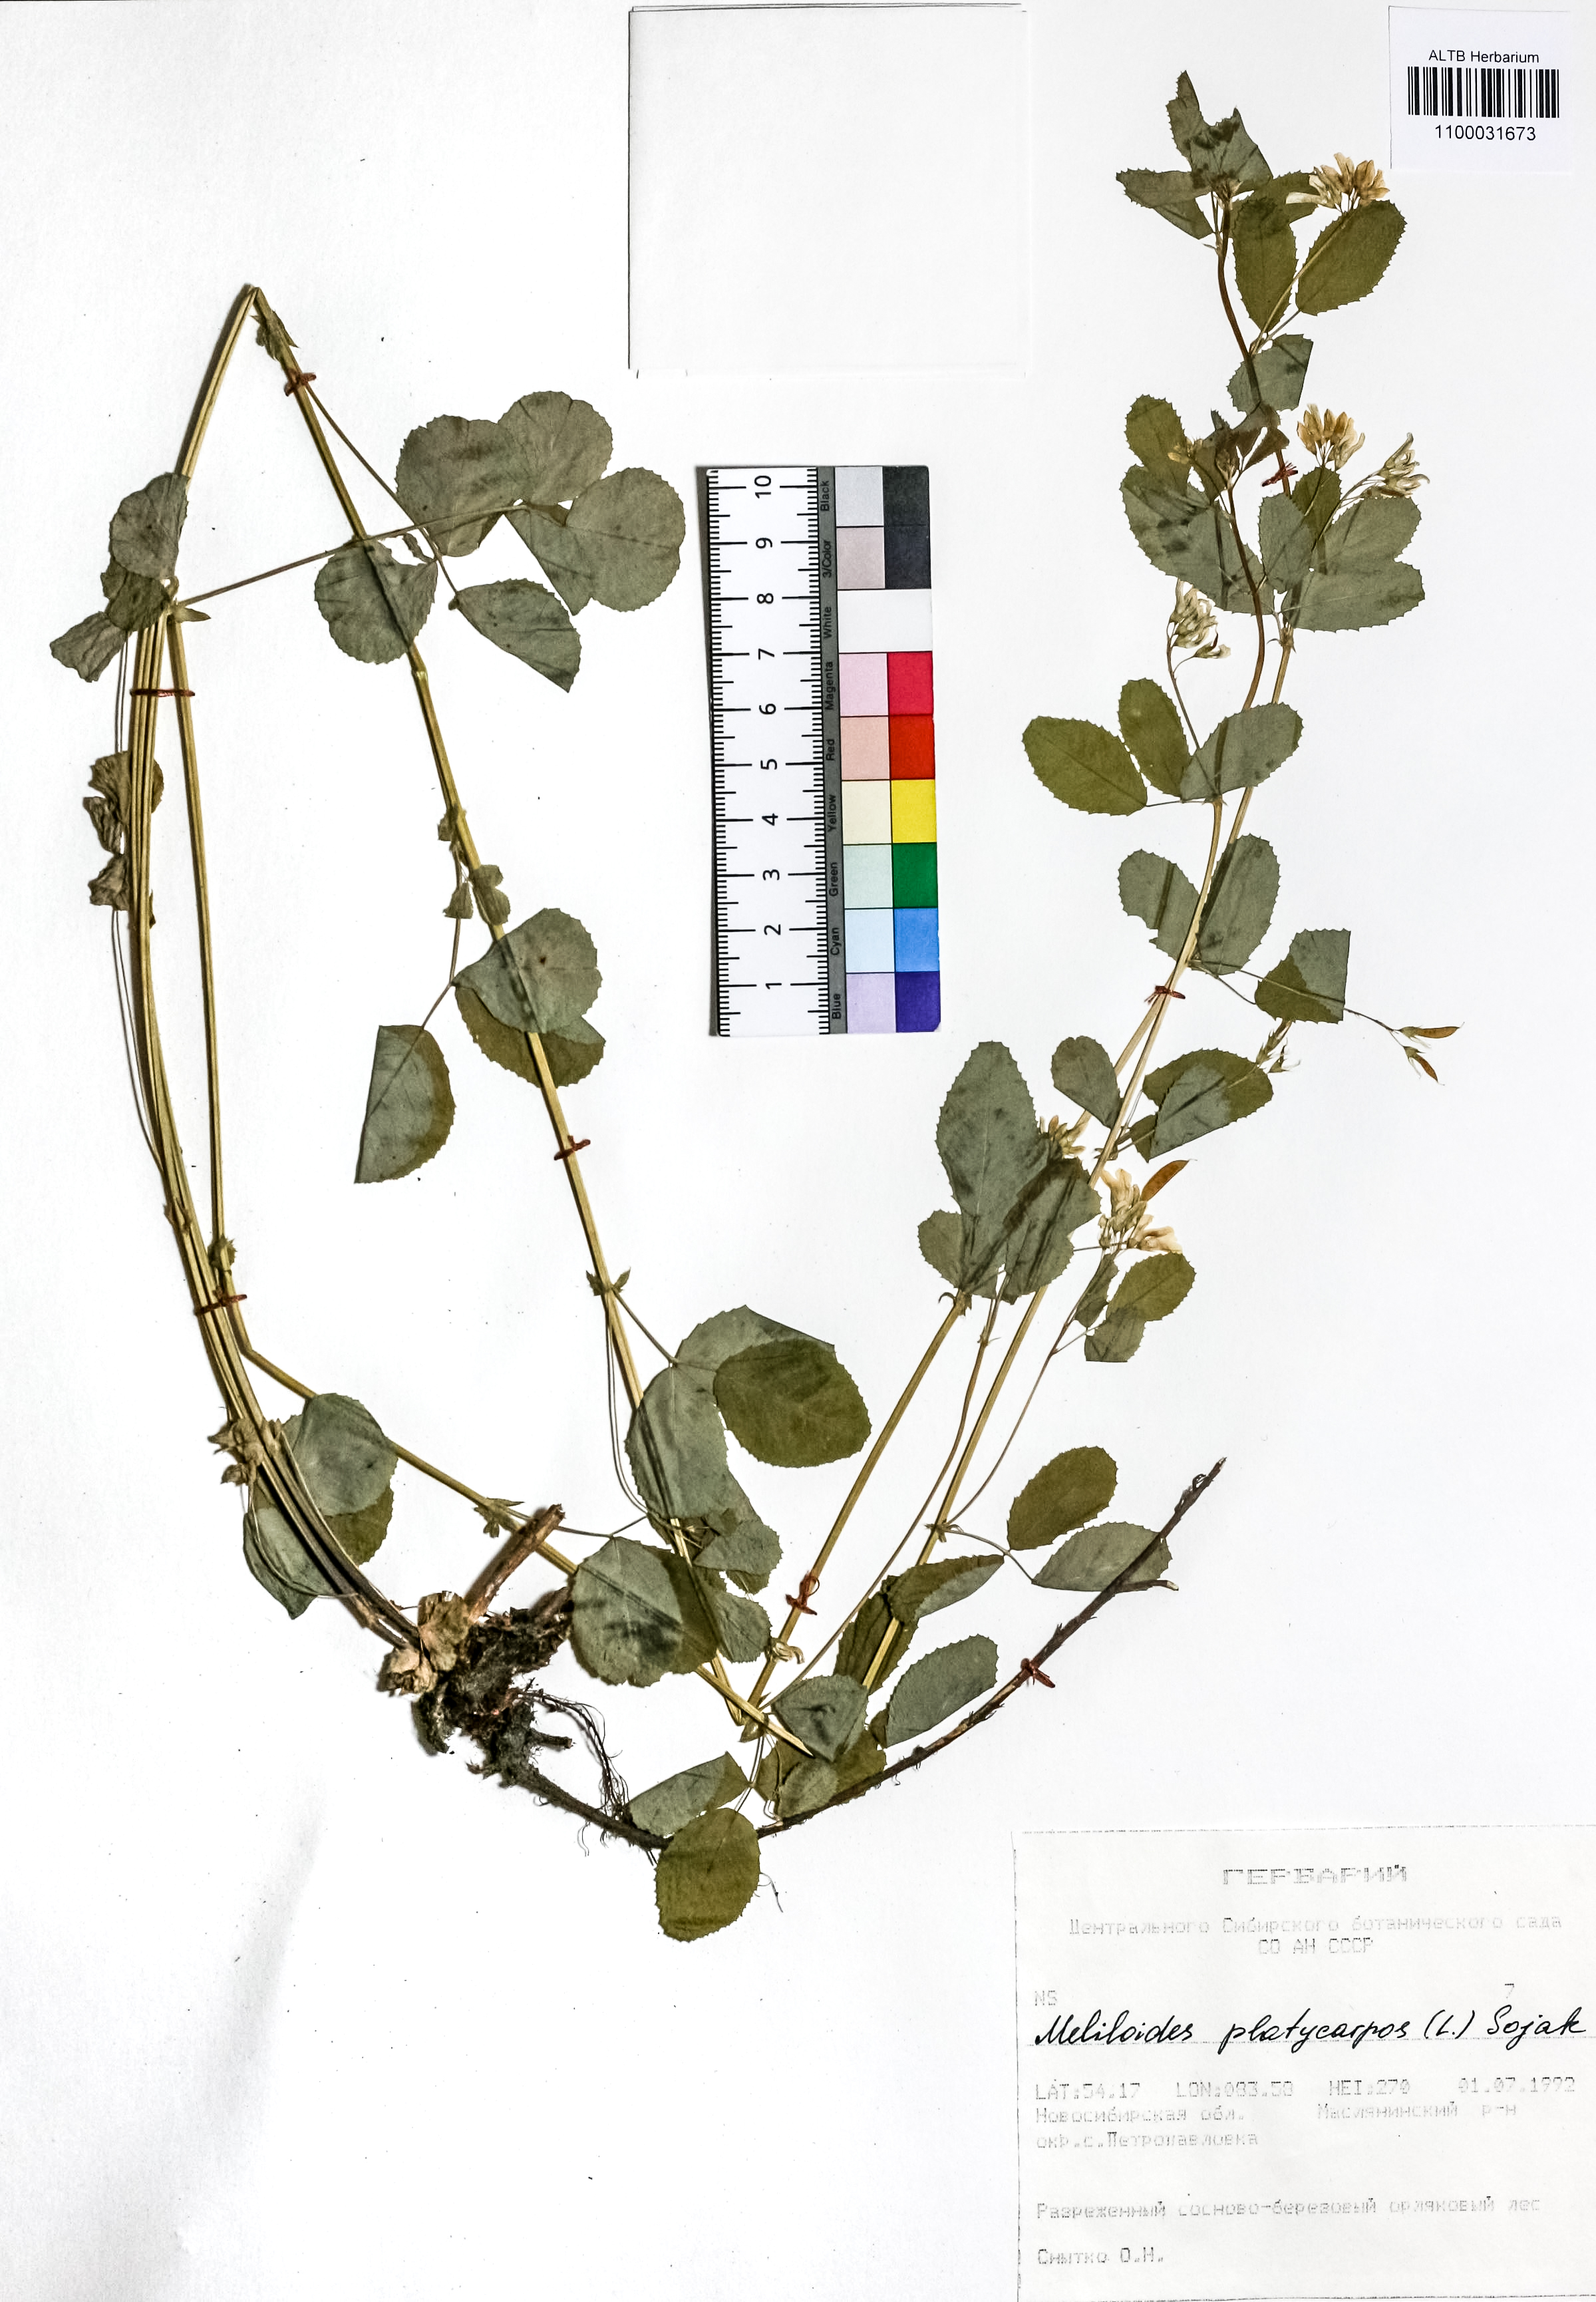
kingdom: Plantae
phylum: Tracheophyta
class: Magnoliopsida
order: Fabales
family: Fabaceae
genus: Medicago
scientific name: Medicago platycarpos
